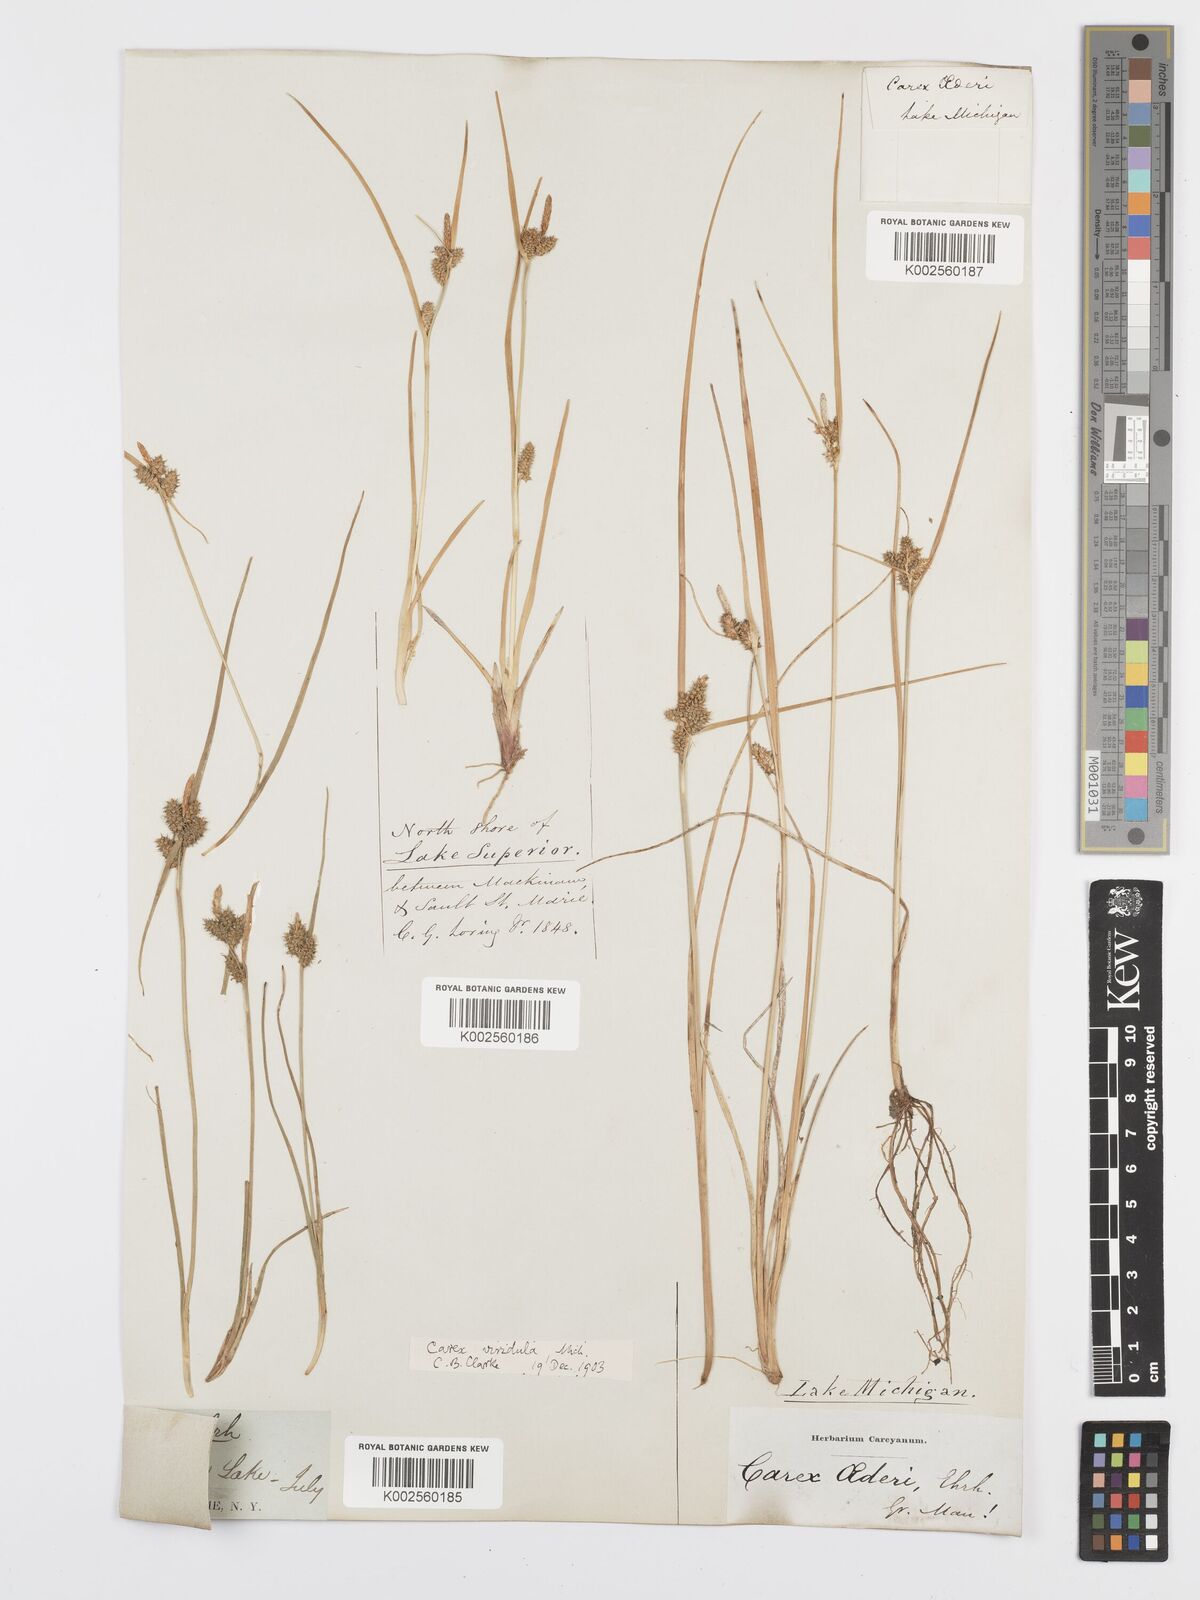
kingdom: Plantae
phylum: Tracheophyta
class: Liliopsida
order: Poales
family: Cyperaceae
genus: Carex
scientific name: Carex oederi
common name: Common & small-fruited yellow-sedge
